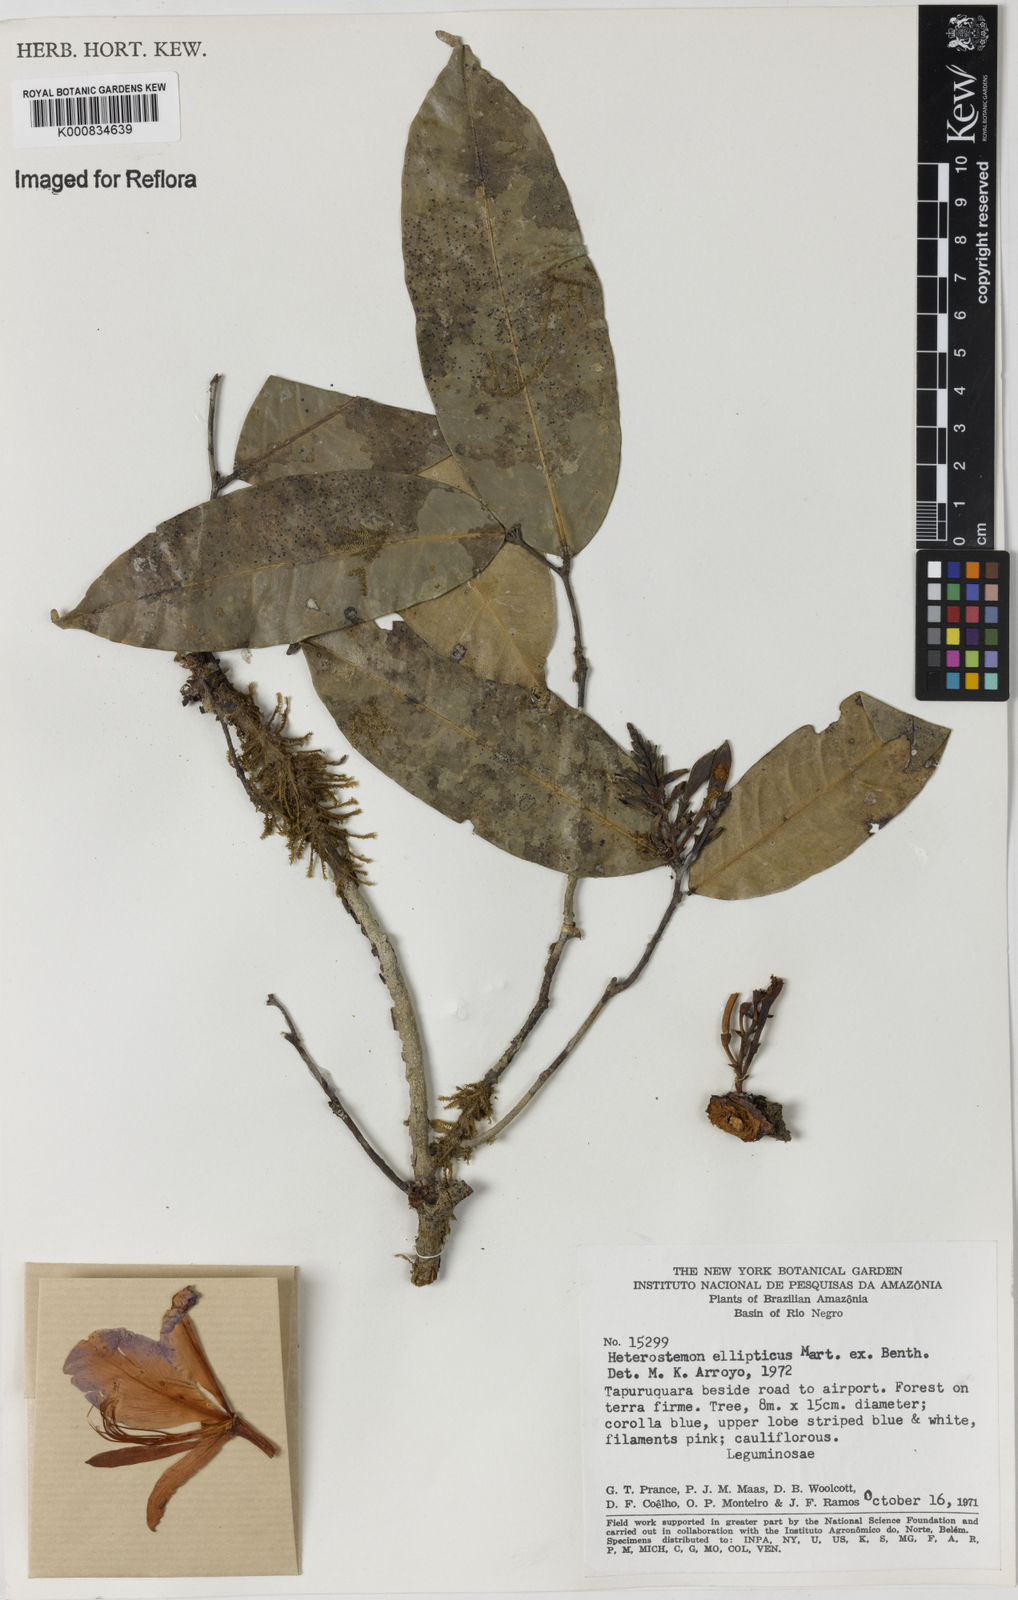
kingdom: Plantae
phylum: Tracheophyta
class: Magnoliopsida
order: Fabales
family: Fabaceae
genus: Heterostemon
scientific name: Heterostemon ellipticus
